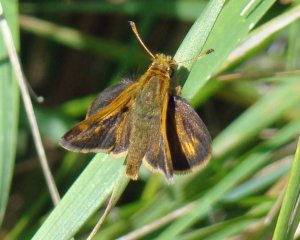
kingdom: Animalia
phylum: Arthropoda
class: Insecta
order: Lepidoptera
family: Hesperiidae
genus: Polites
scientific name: Polites coras
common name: Peck's Skipper
